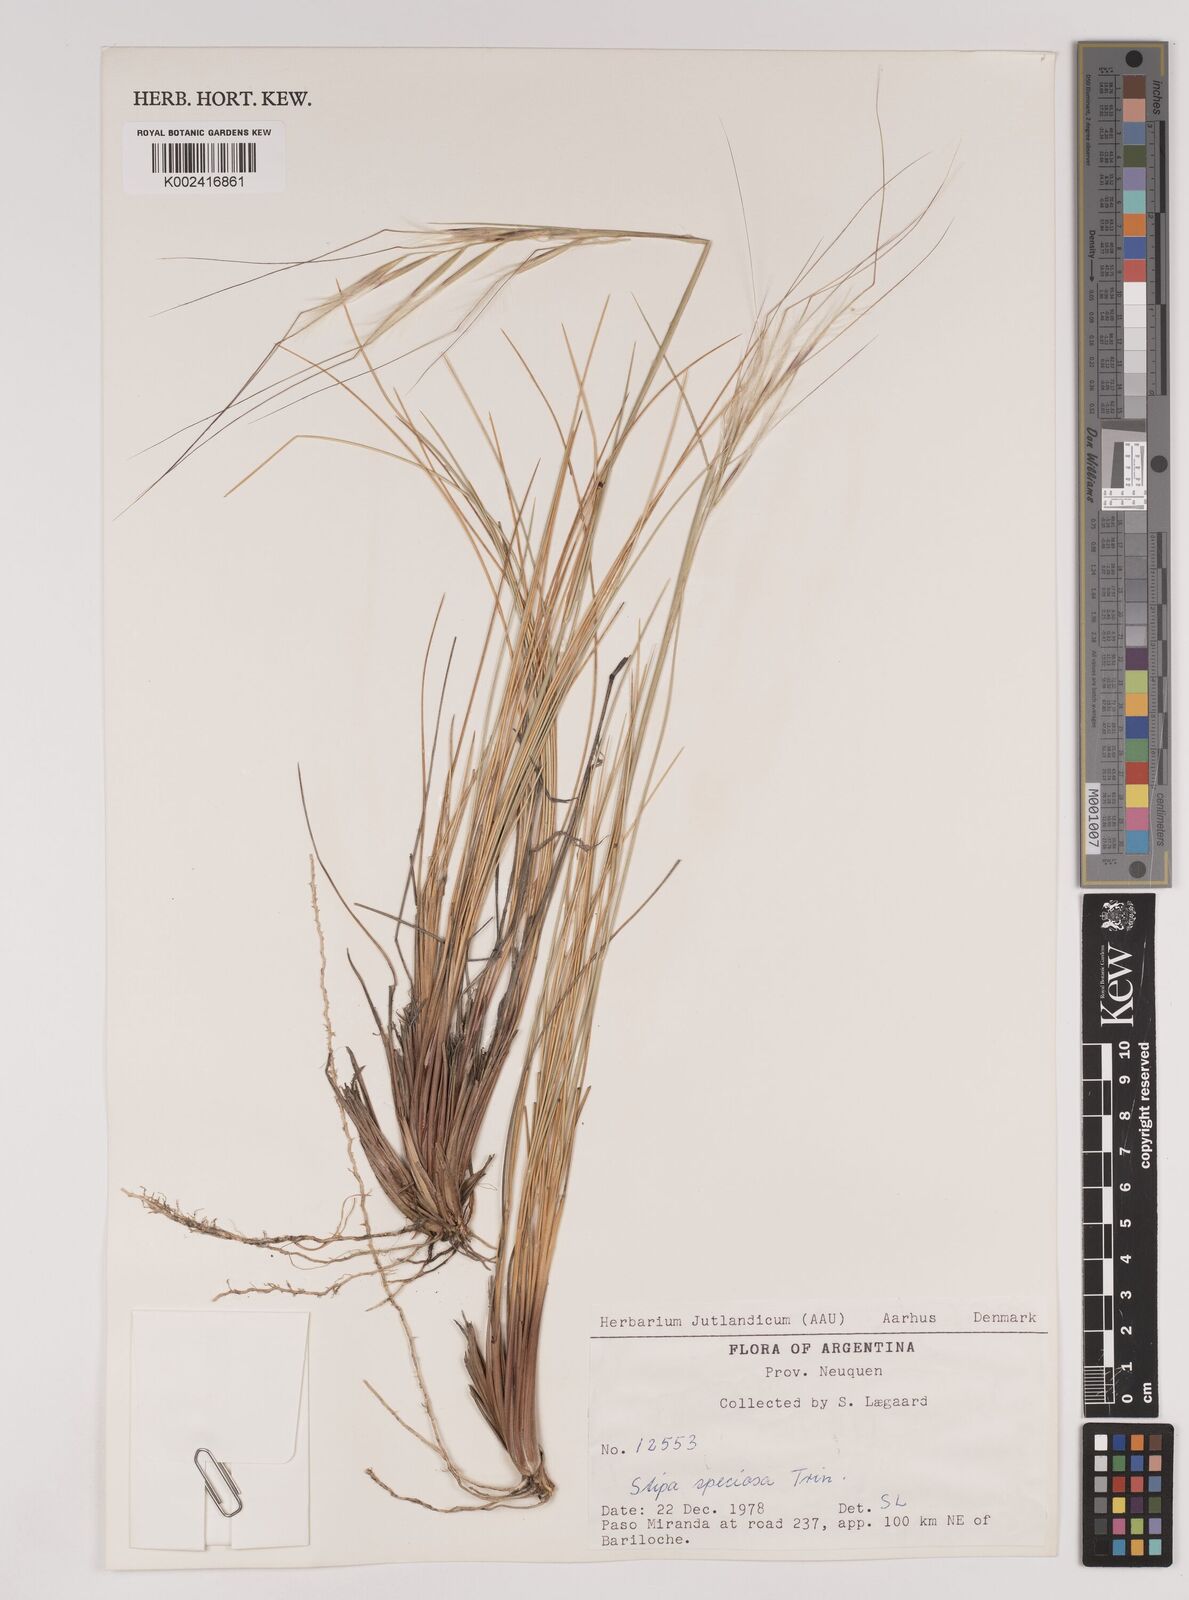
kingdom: Plantae
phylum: Tracheophyta
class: Liliopsida
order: Poales
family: Poaceae
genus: Pappostipa
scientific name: Pappostipa speciosa
